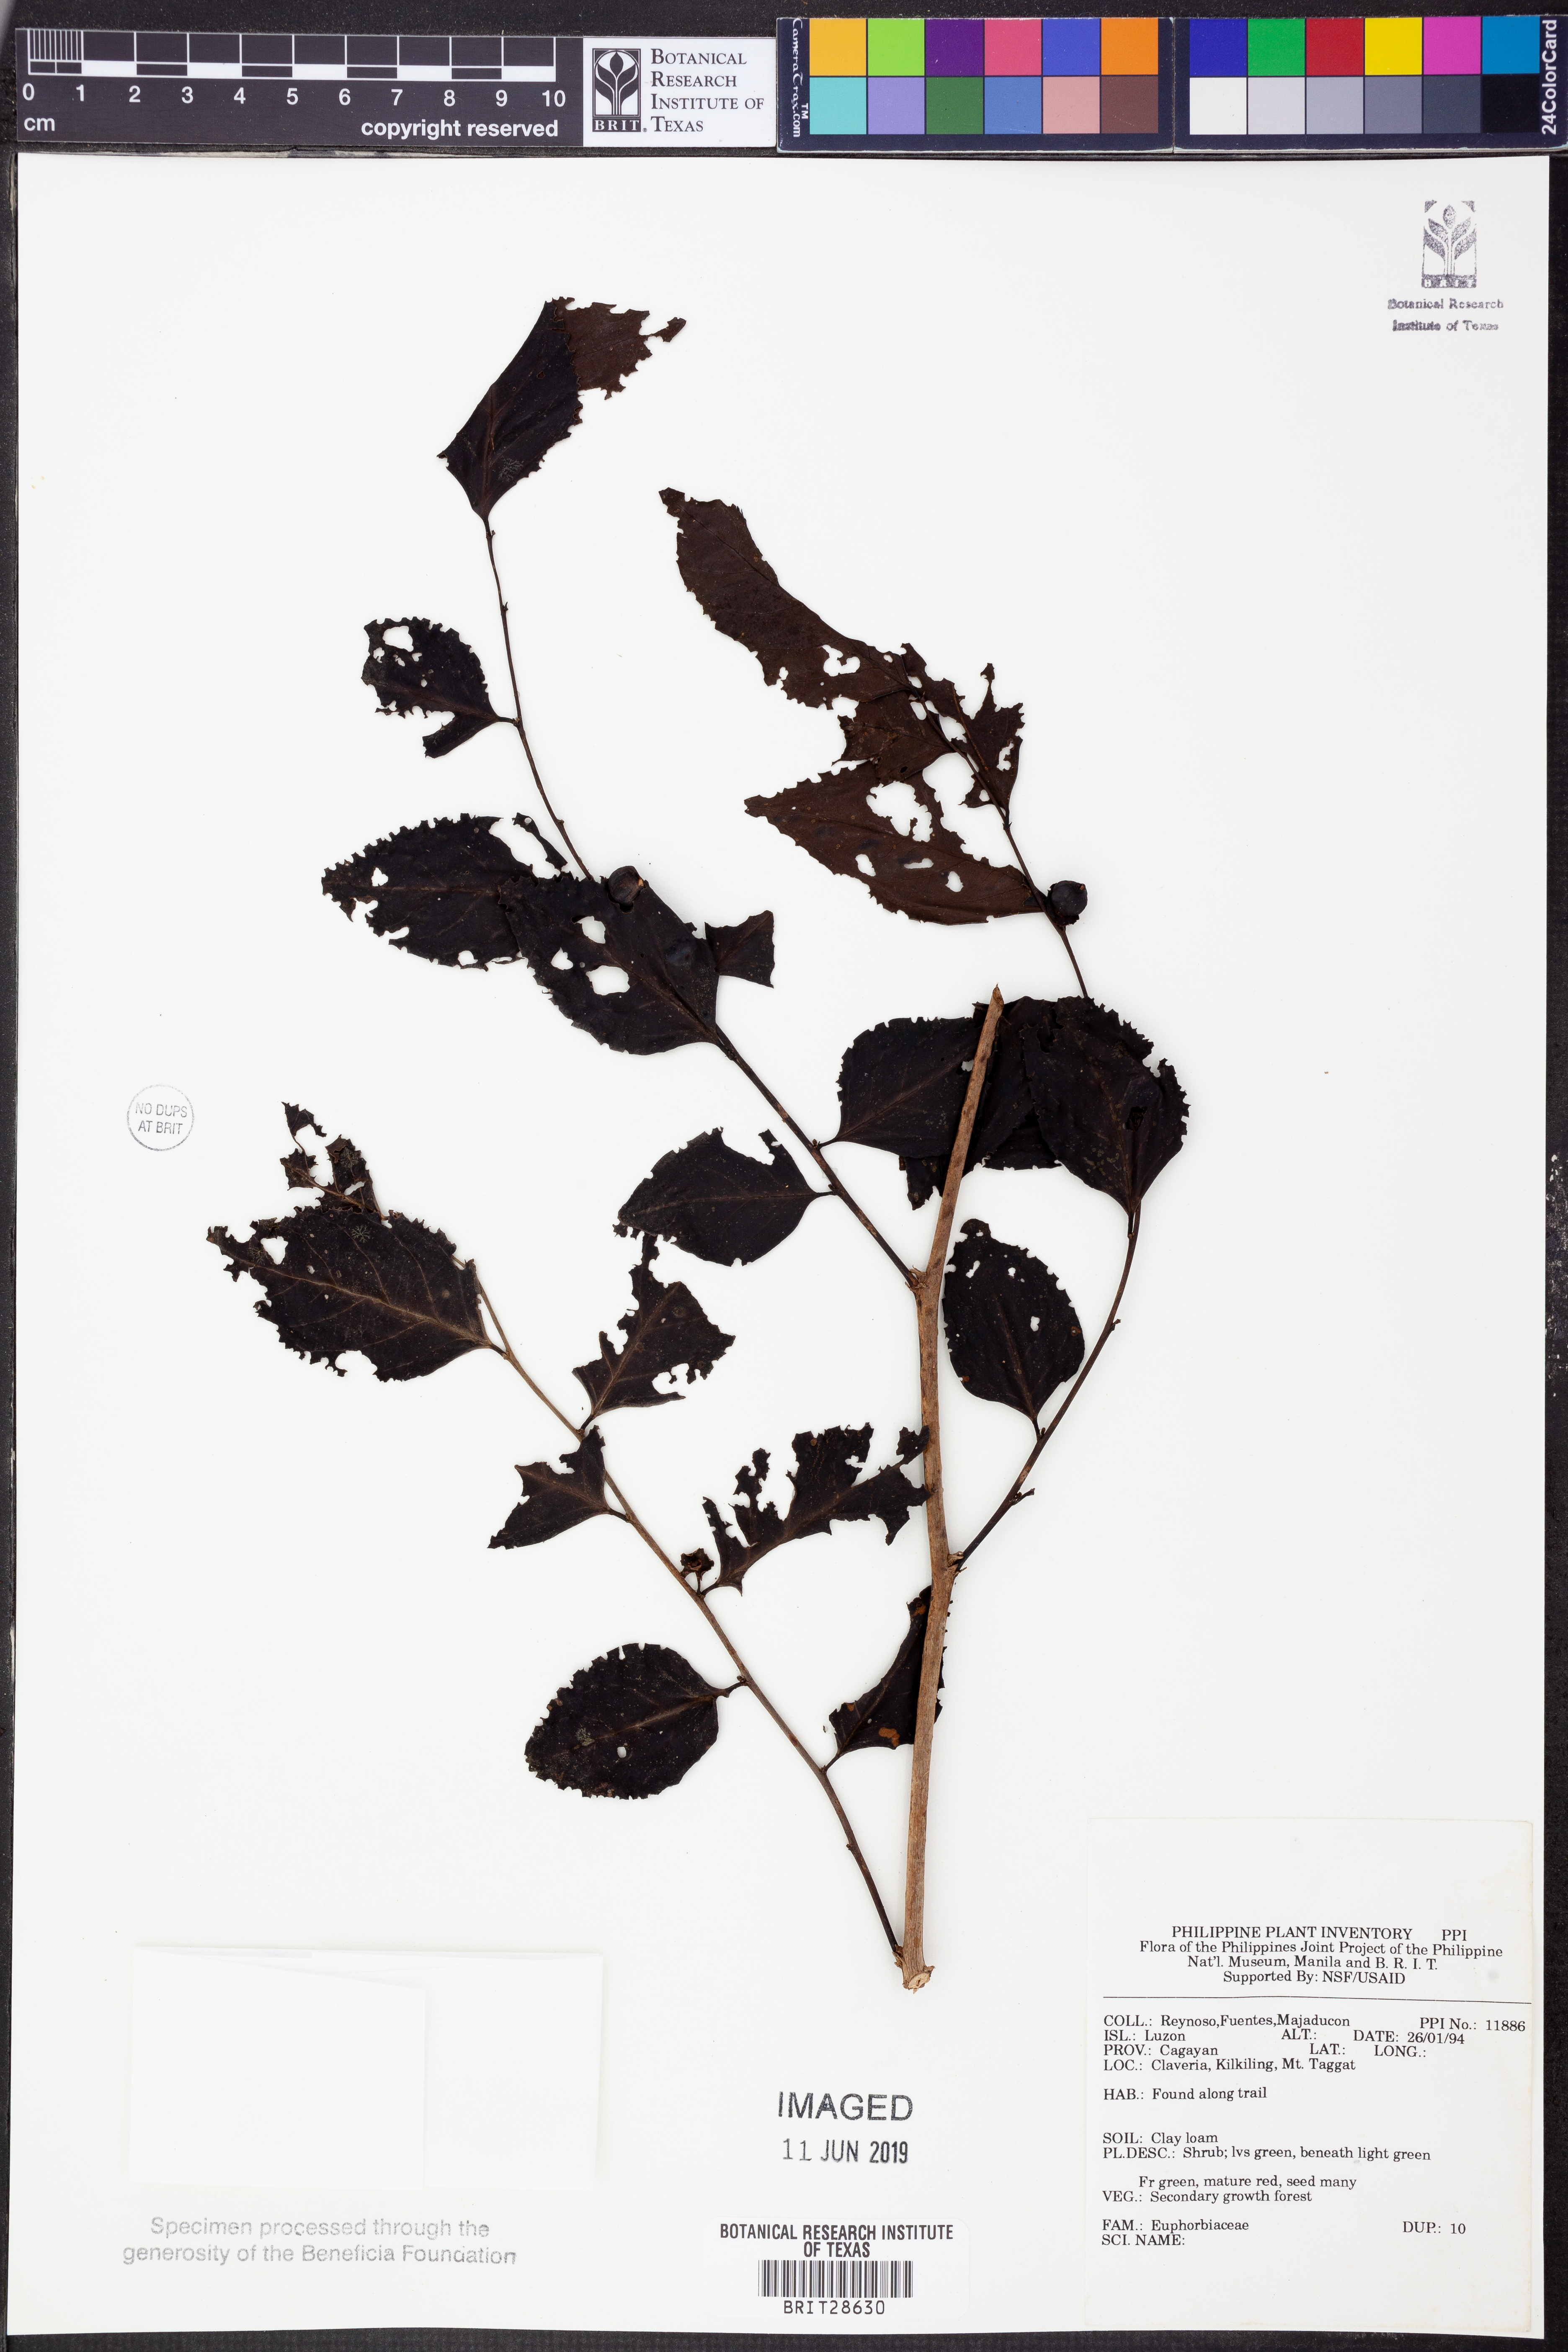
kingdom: Plantae
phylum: Tracheophyta
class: Magnoliopsida
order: Malpighiales
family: Euphorbiaceae
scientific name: Euphorbiaceae
